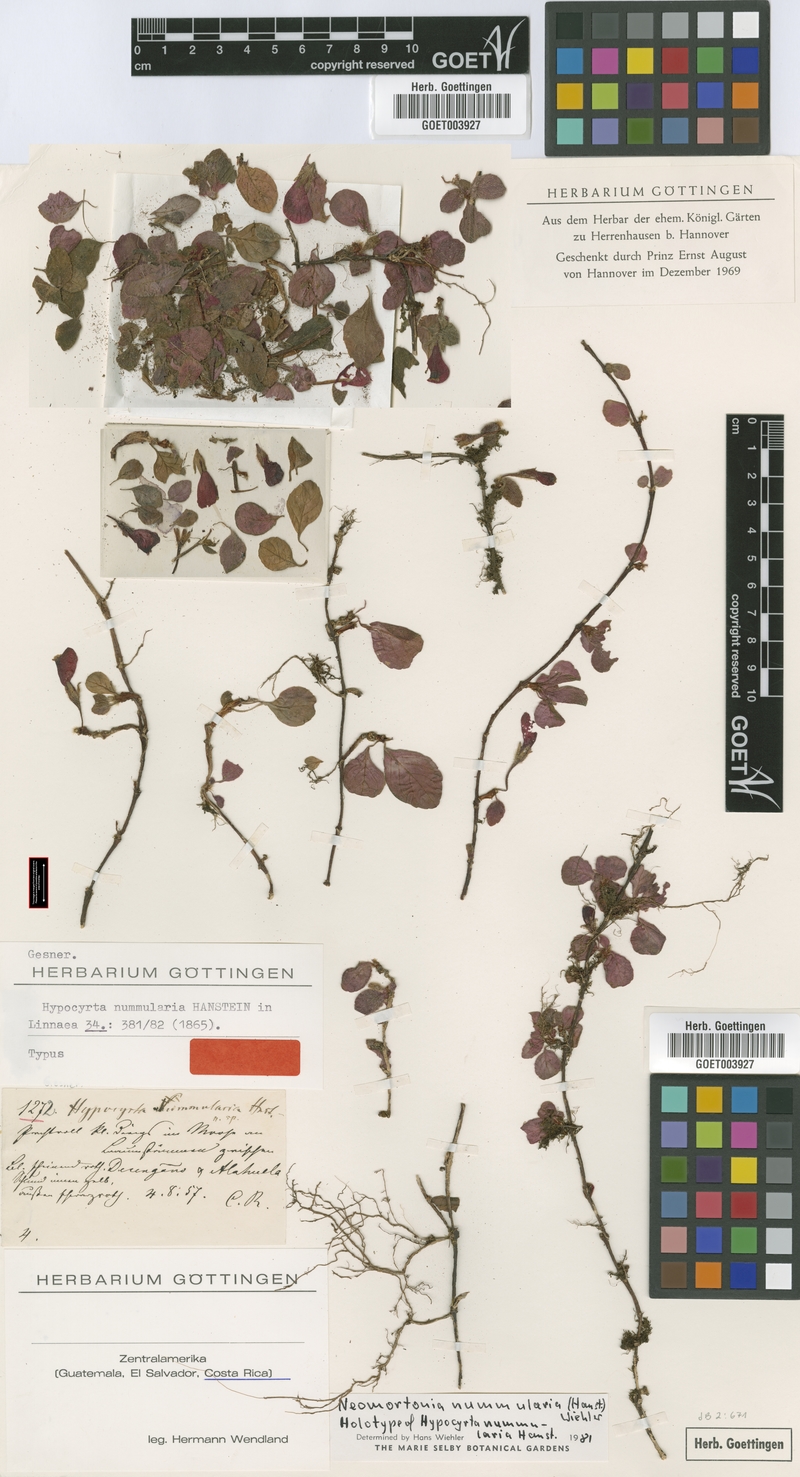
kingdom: Plantae
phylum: Tracheophyta
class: Magnoliopsida
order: Lamiales
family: Gesneriaceae
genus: Pachycaulos
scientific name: Pachycaulos nummularia
